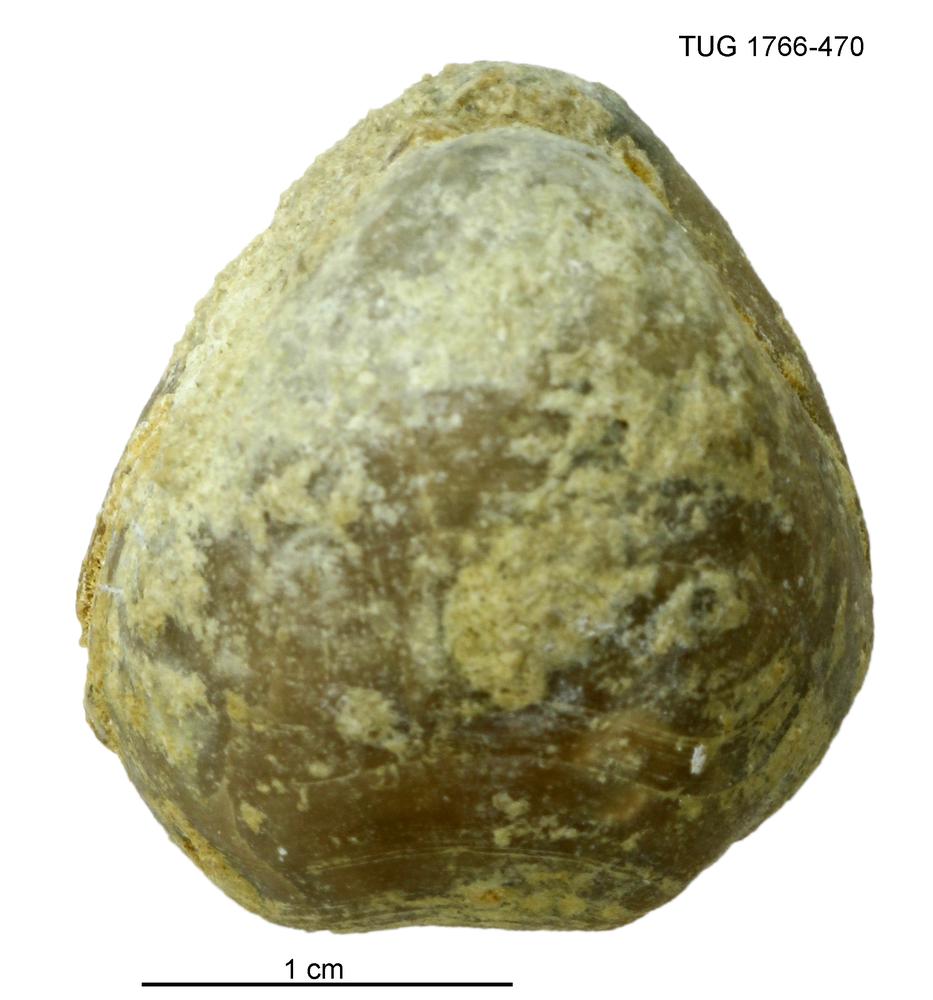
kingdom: Animalia
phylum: Brachiopoda
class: Rhynchonellata
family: Porambonitidae
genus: Porambonites
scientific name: Porambonites
